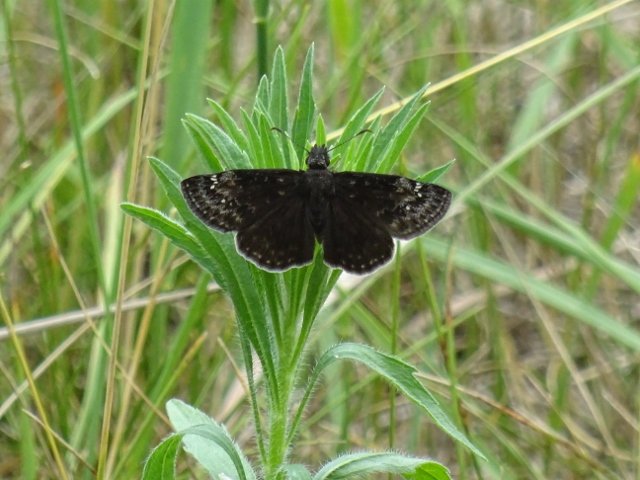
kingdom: Animalia
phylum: Arthropoda
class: Insecta
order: Lepidoptera
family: Hesperiidae
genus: Gesta
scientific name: Gesta
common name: Wild Indigo Duskywing
